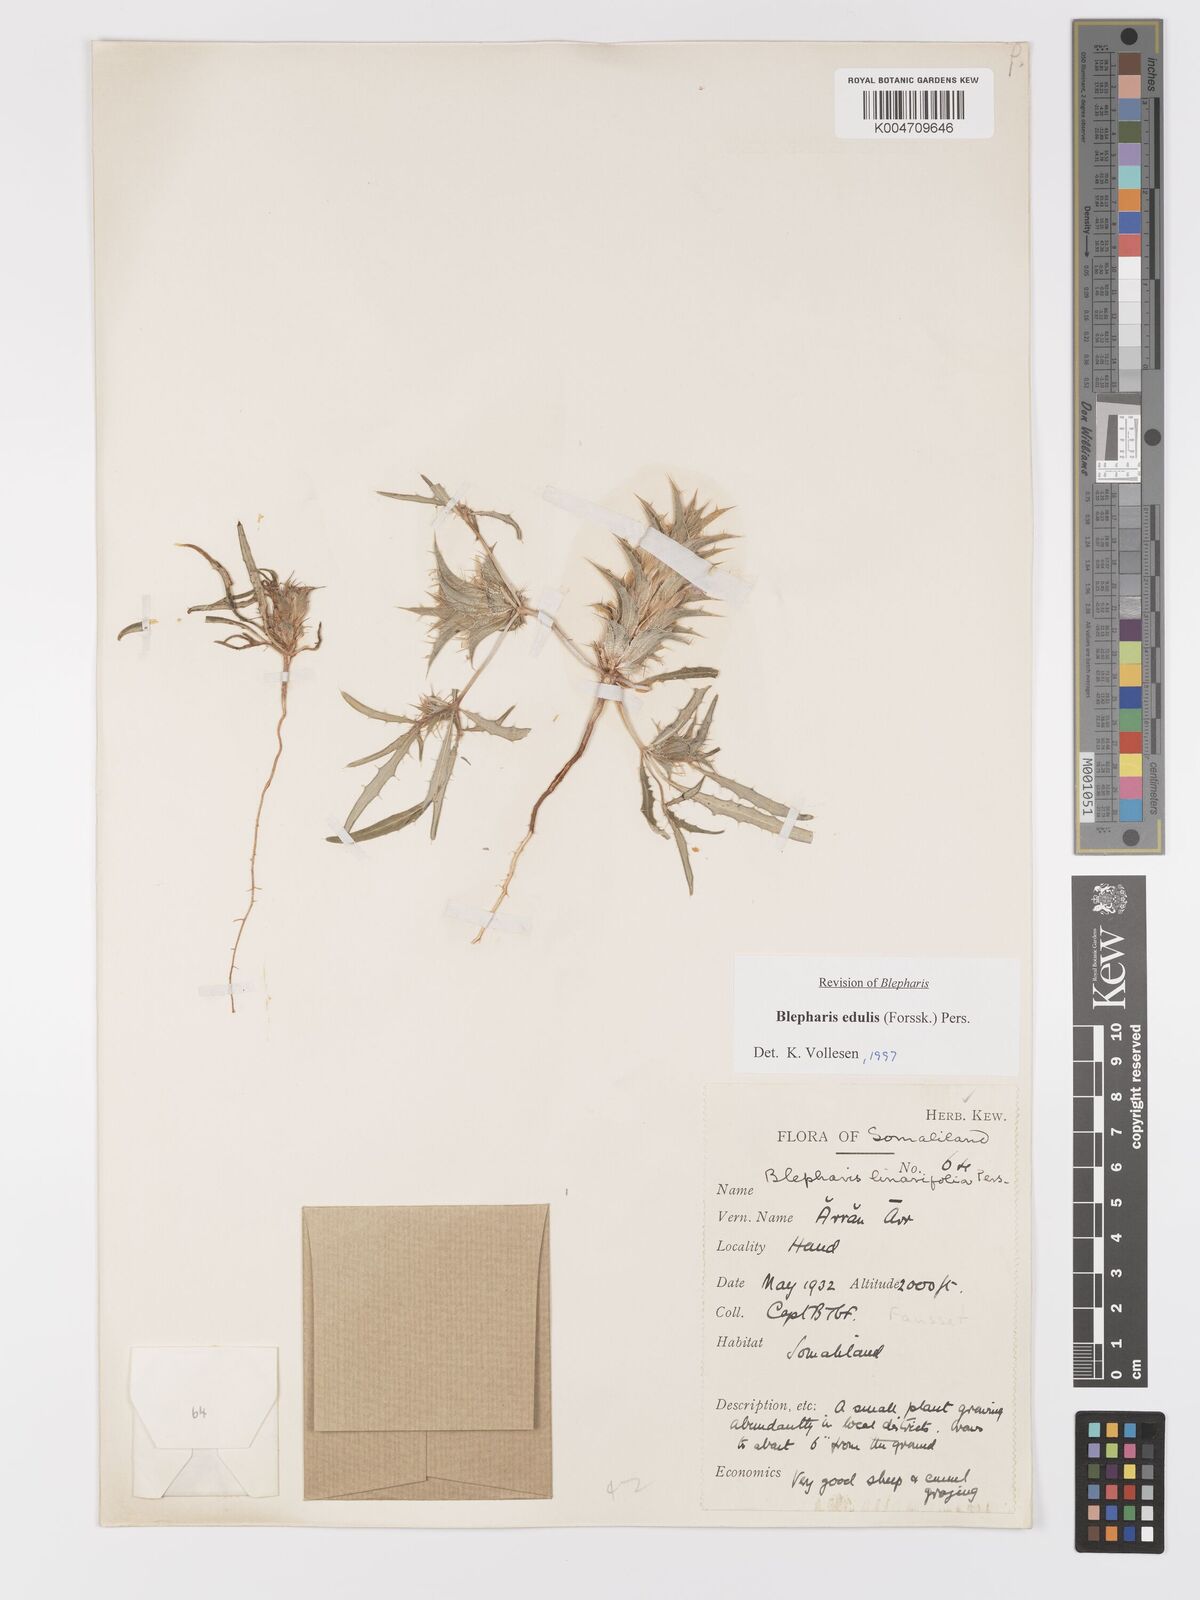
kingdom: Plantae
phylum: Tracheophyta
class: Magnoliopsida
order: Lamiales
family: Acanthaceae
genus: Blepharis
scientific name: Blepharis edulis
